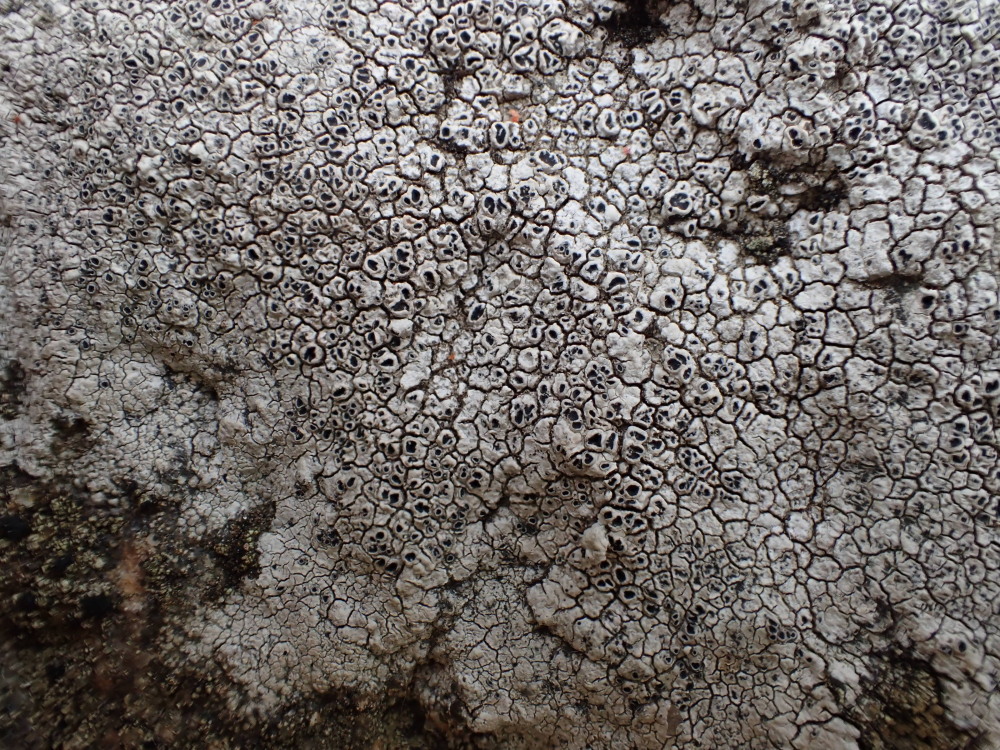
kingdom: Fungi
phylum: Ascomycota
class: Lecanoromycetes
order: Pertusariales
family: Megasporaceae
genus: Aspicilia
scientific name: Aspicilia cinerea
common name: grå hulskivelav
